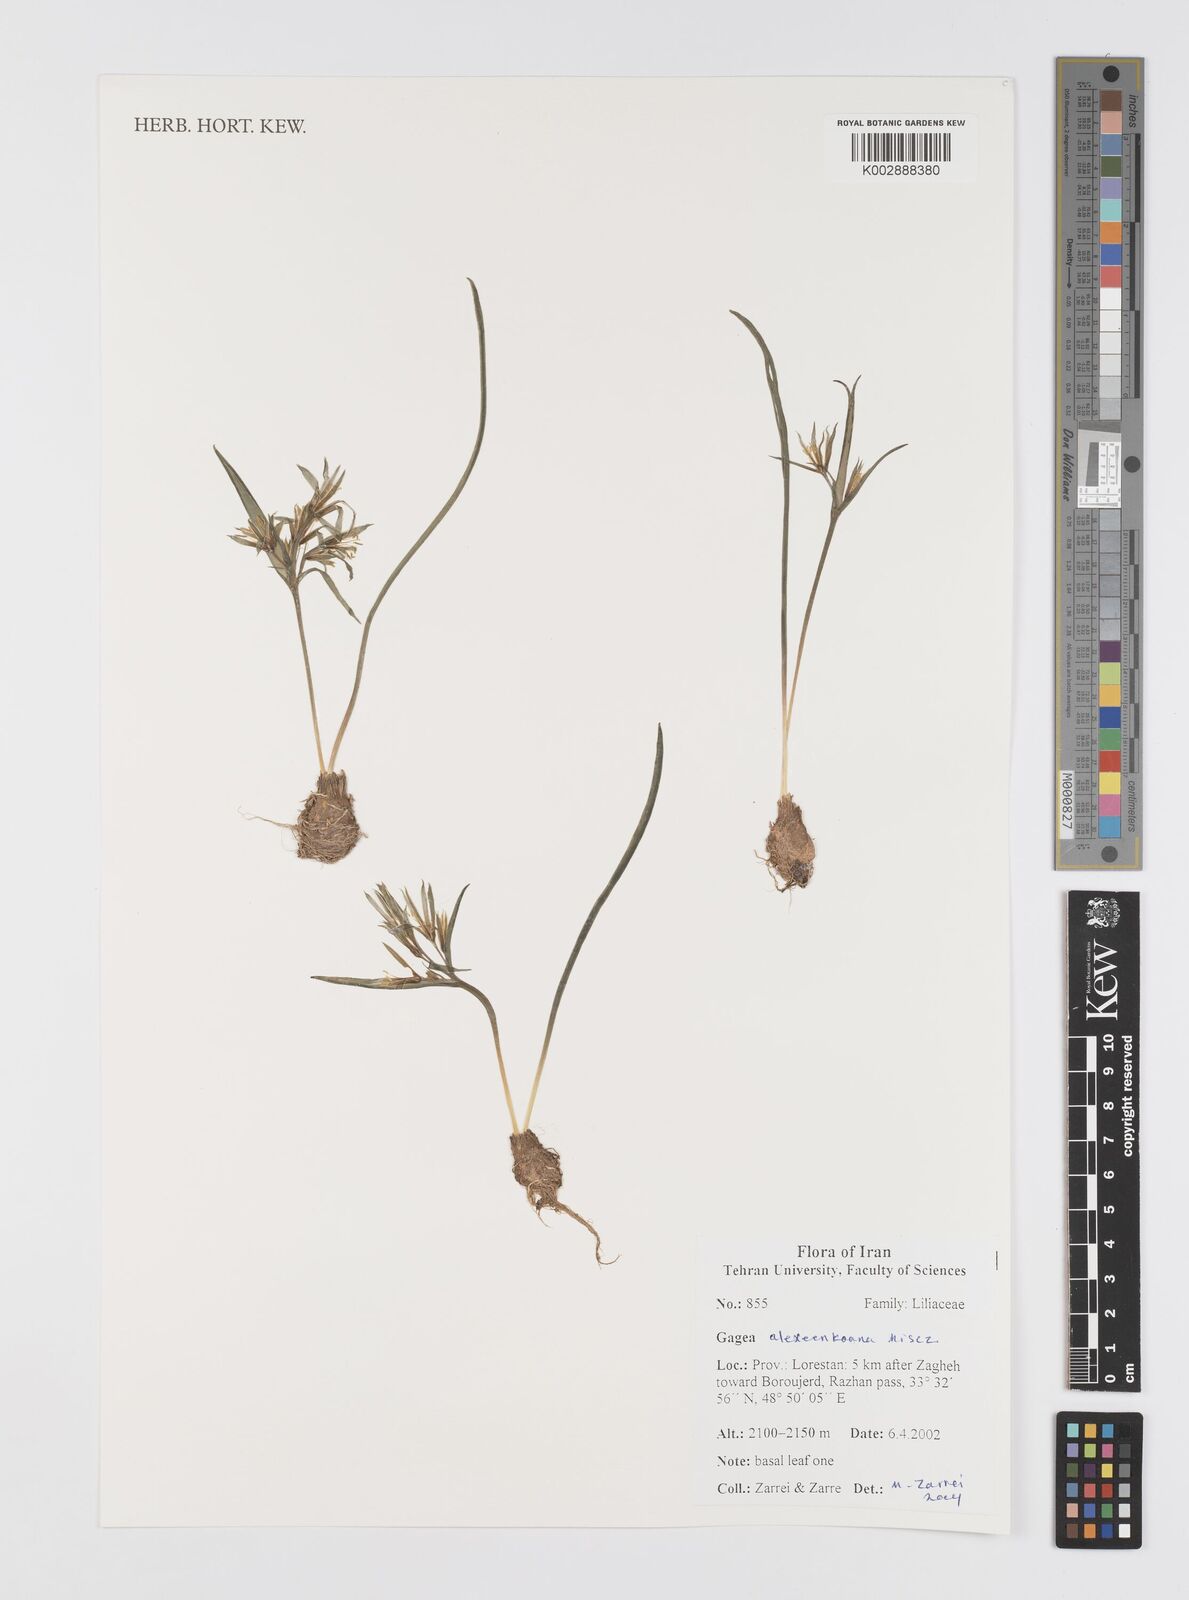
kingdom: Plantae
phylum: Tracheophyta
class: Liliopsida
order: Liliales
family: Liliaceae
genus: Gagea
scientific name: Gagea alexeenkoana
